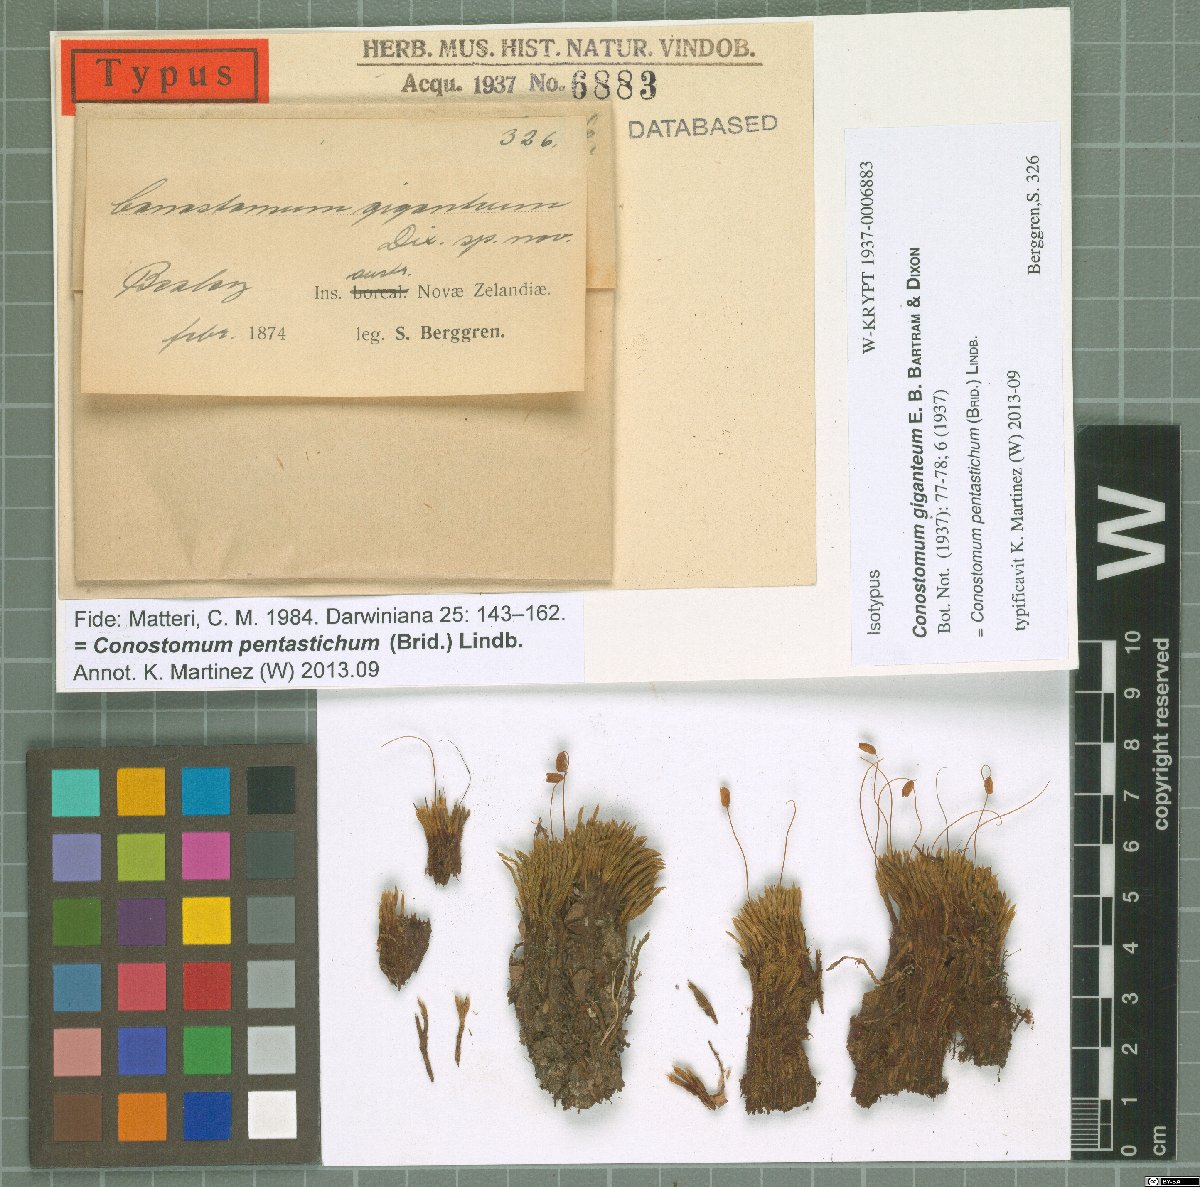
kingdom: Plantae
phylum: Bryophyta
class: Bryopsida
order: Bartramiales
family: Bartramiaceae
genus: Conostomum
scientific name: Conostomum pentastichum
